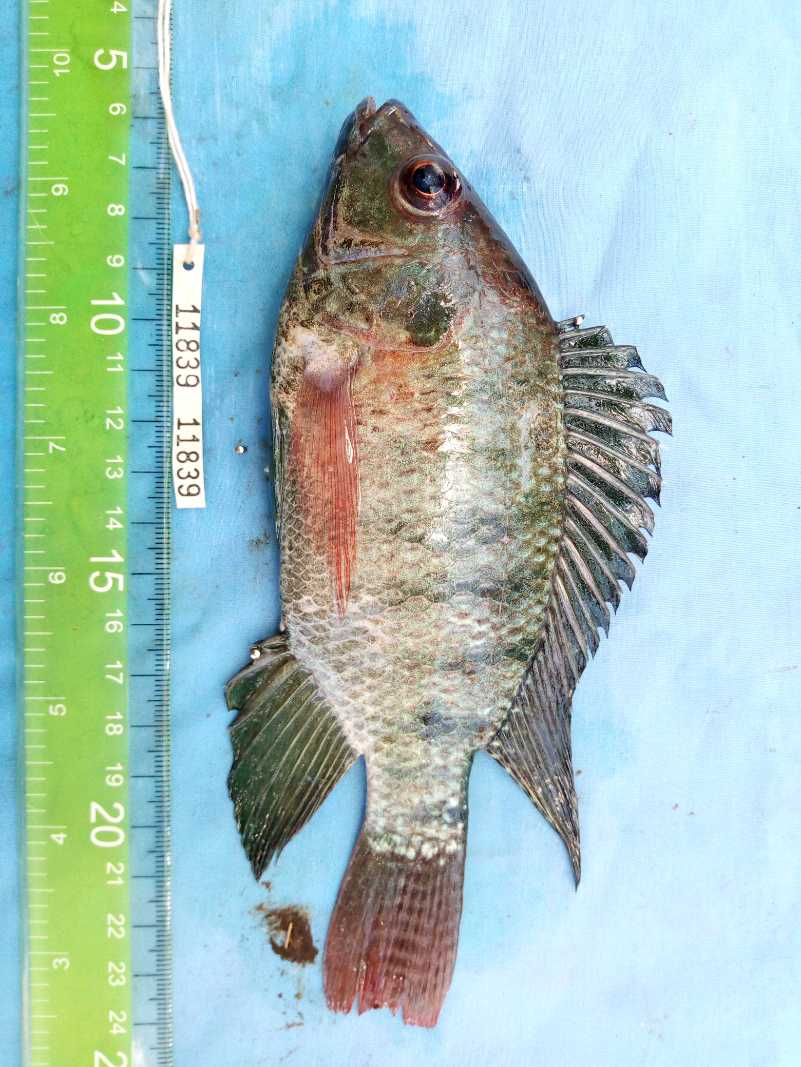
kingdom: Animalia
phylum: Chordata
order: Perciformes
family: Cichlidae
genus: Oreochromis
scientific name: Oreochromis niloticus
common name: Nile tilapia
